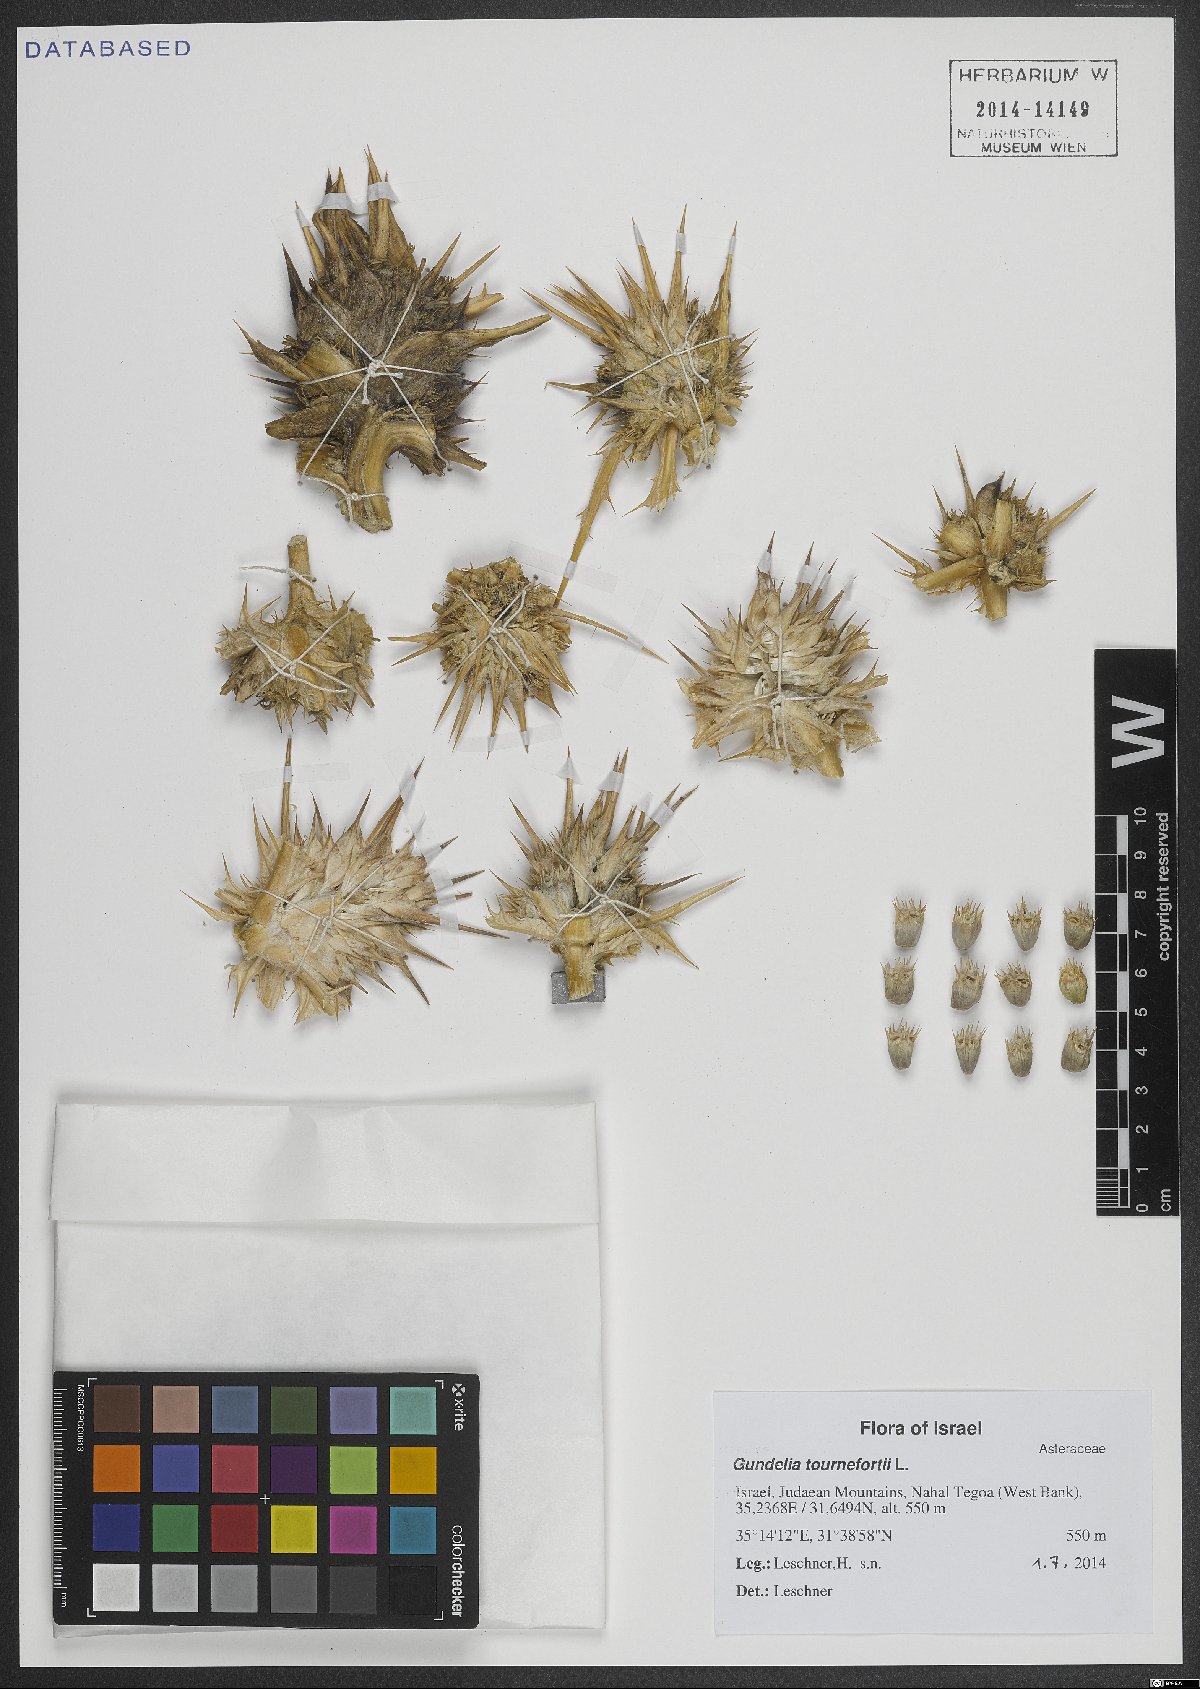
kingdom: Plantae
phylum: Tracheophyta
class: Magnoliopsida
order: Asterales
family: Asteraceae
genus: Gundelia
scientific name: Gundelia tournefortii
